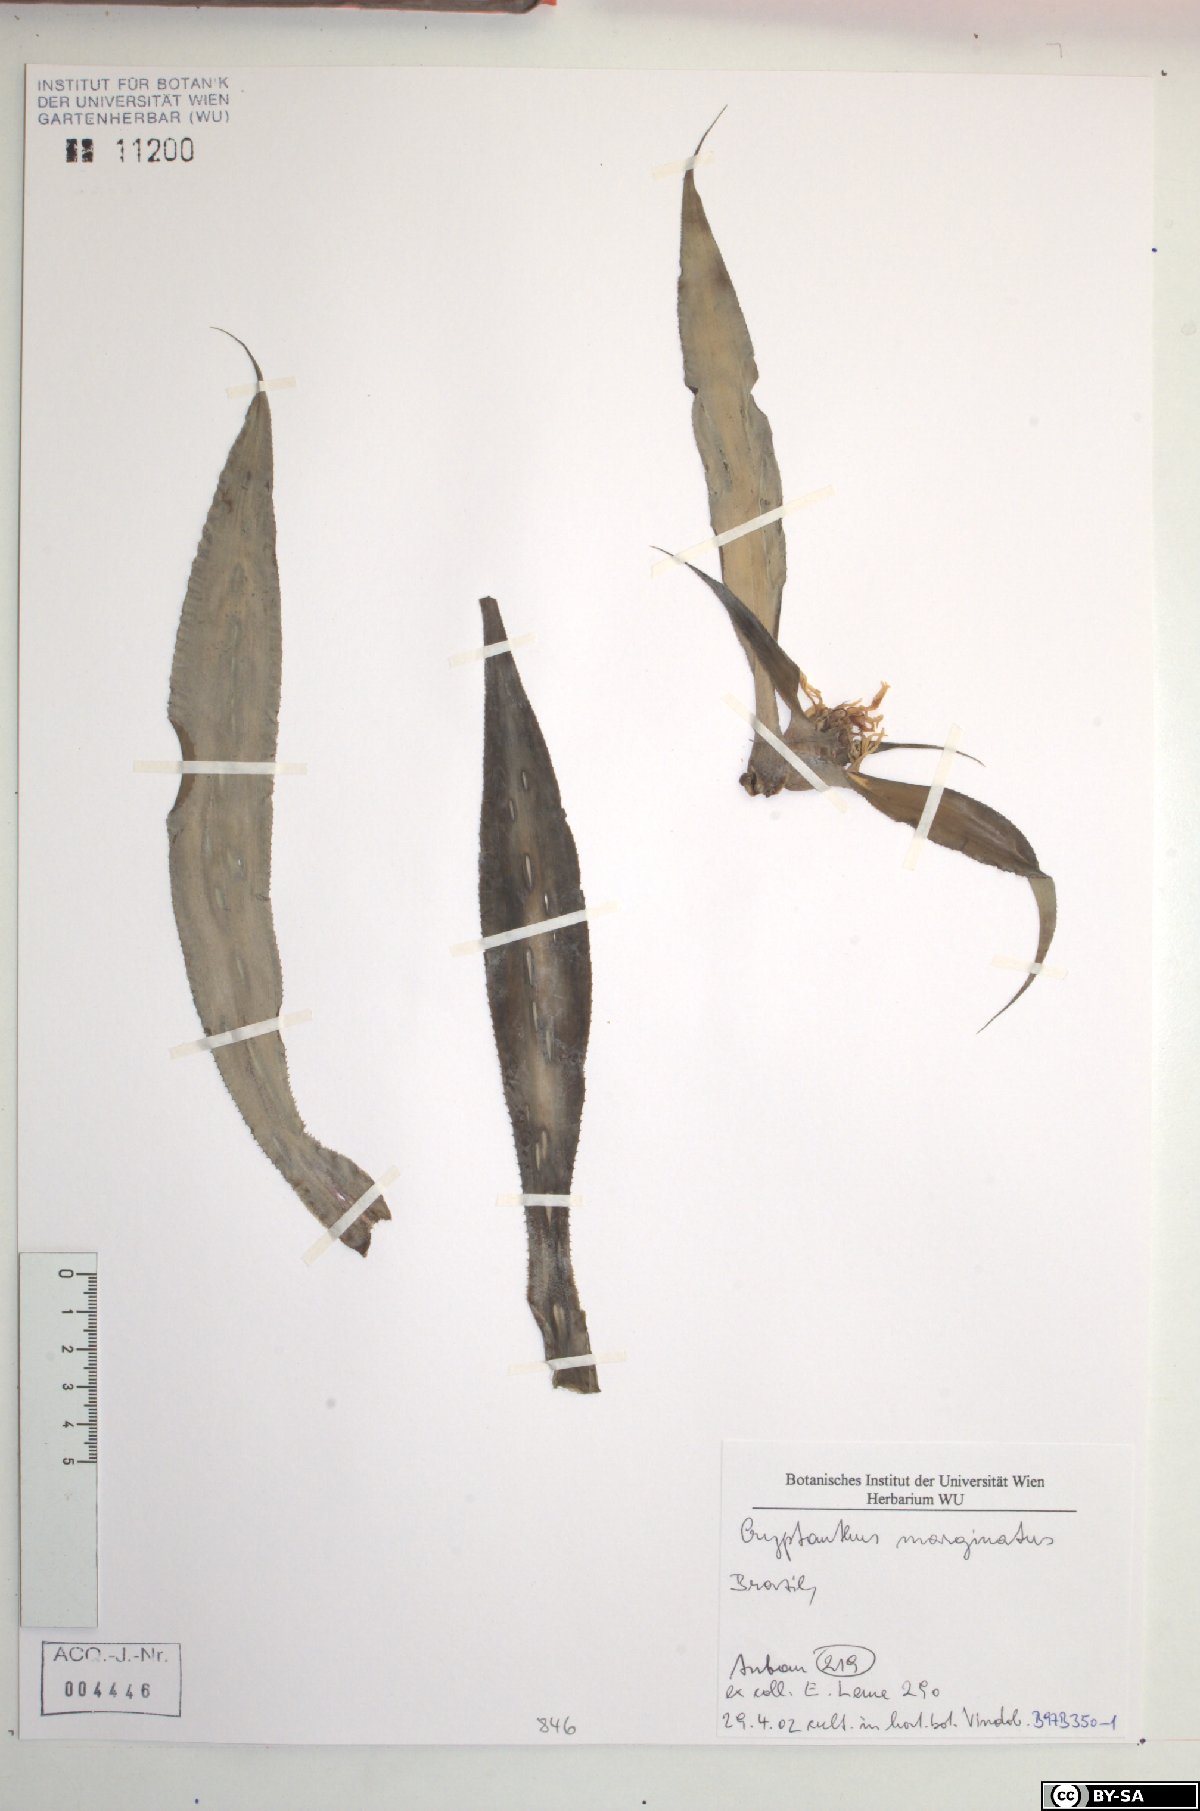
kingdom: Plantae
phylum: Tracheophyta
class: Liliopsida
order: Poales
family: Bromeliaceae
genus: Cryptanthus
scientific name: Cryptanthus marginatus
